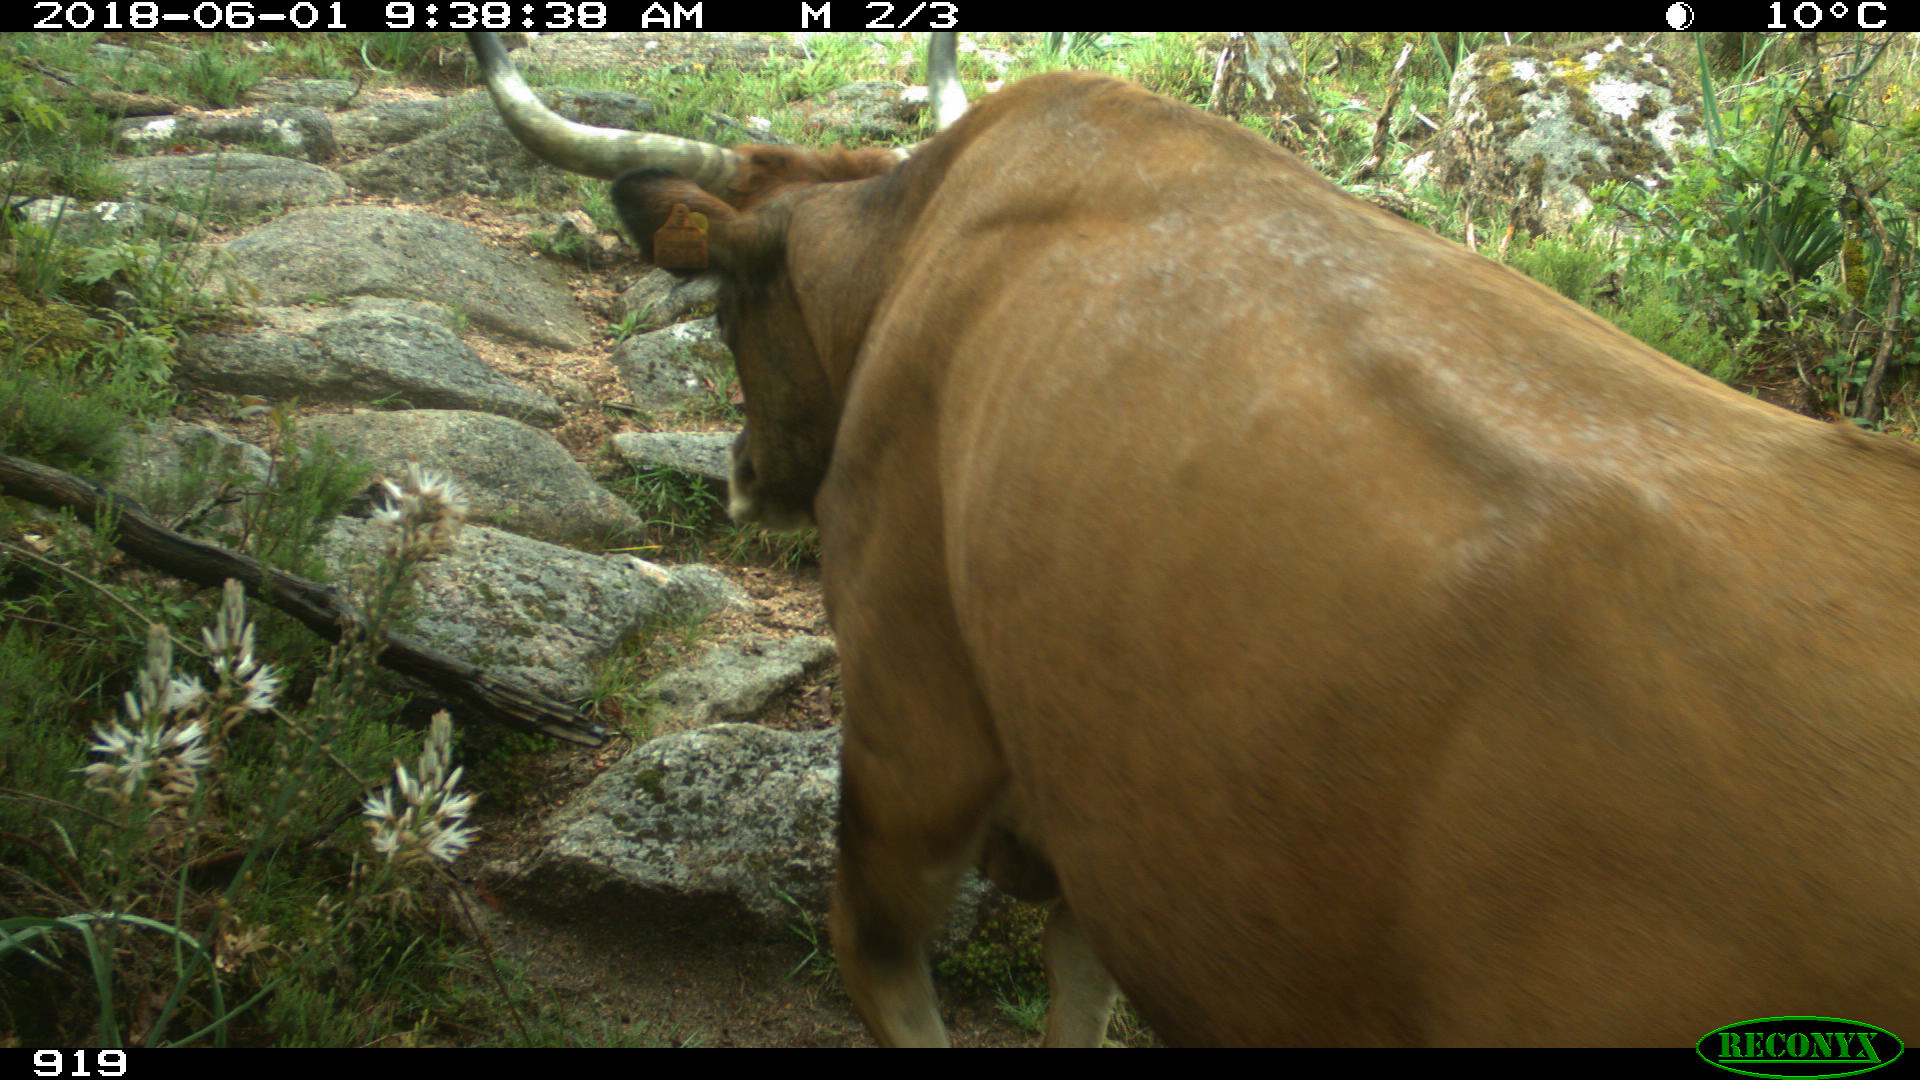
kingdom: Animalia
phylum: Chordata
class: Mammalia
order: Artiodactyla
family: Bovidae
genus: Bos
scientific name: Bos taurus
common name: Domesticated cattle
